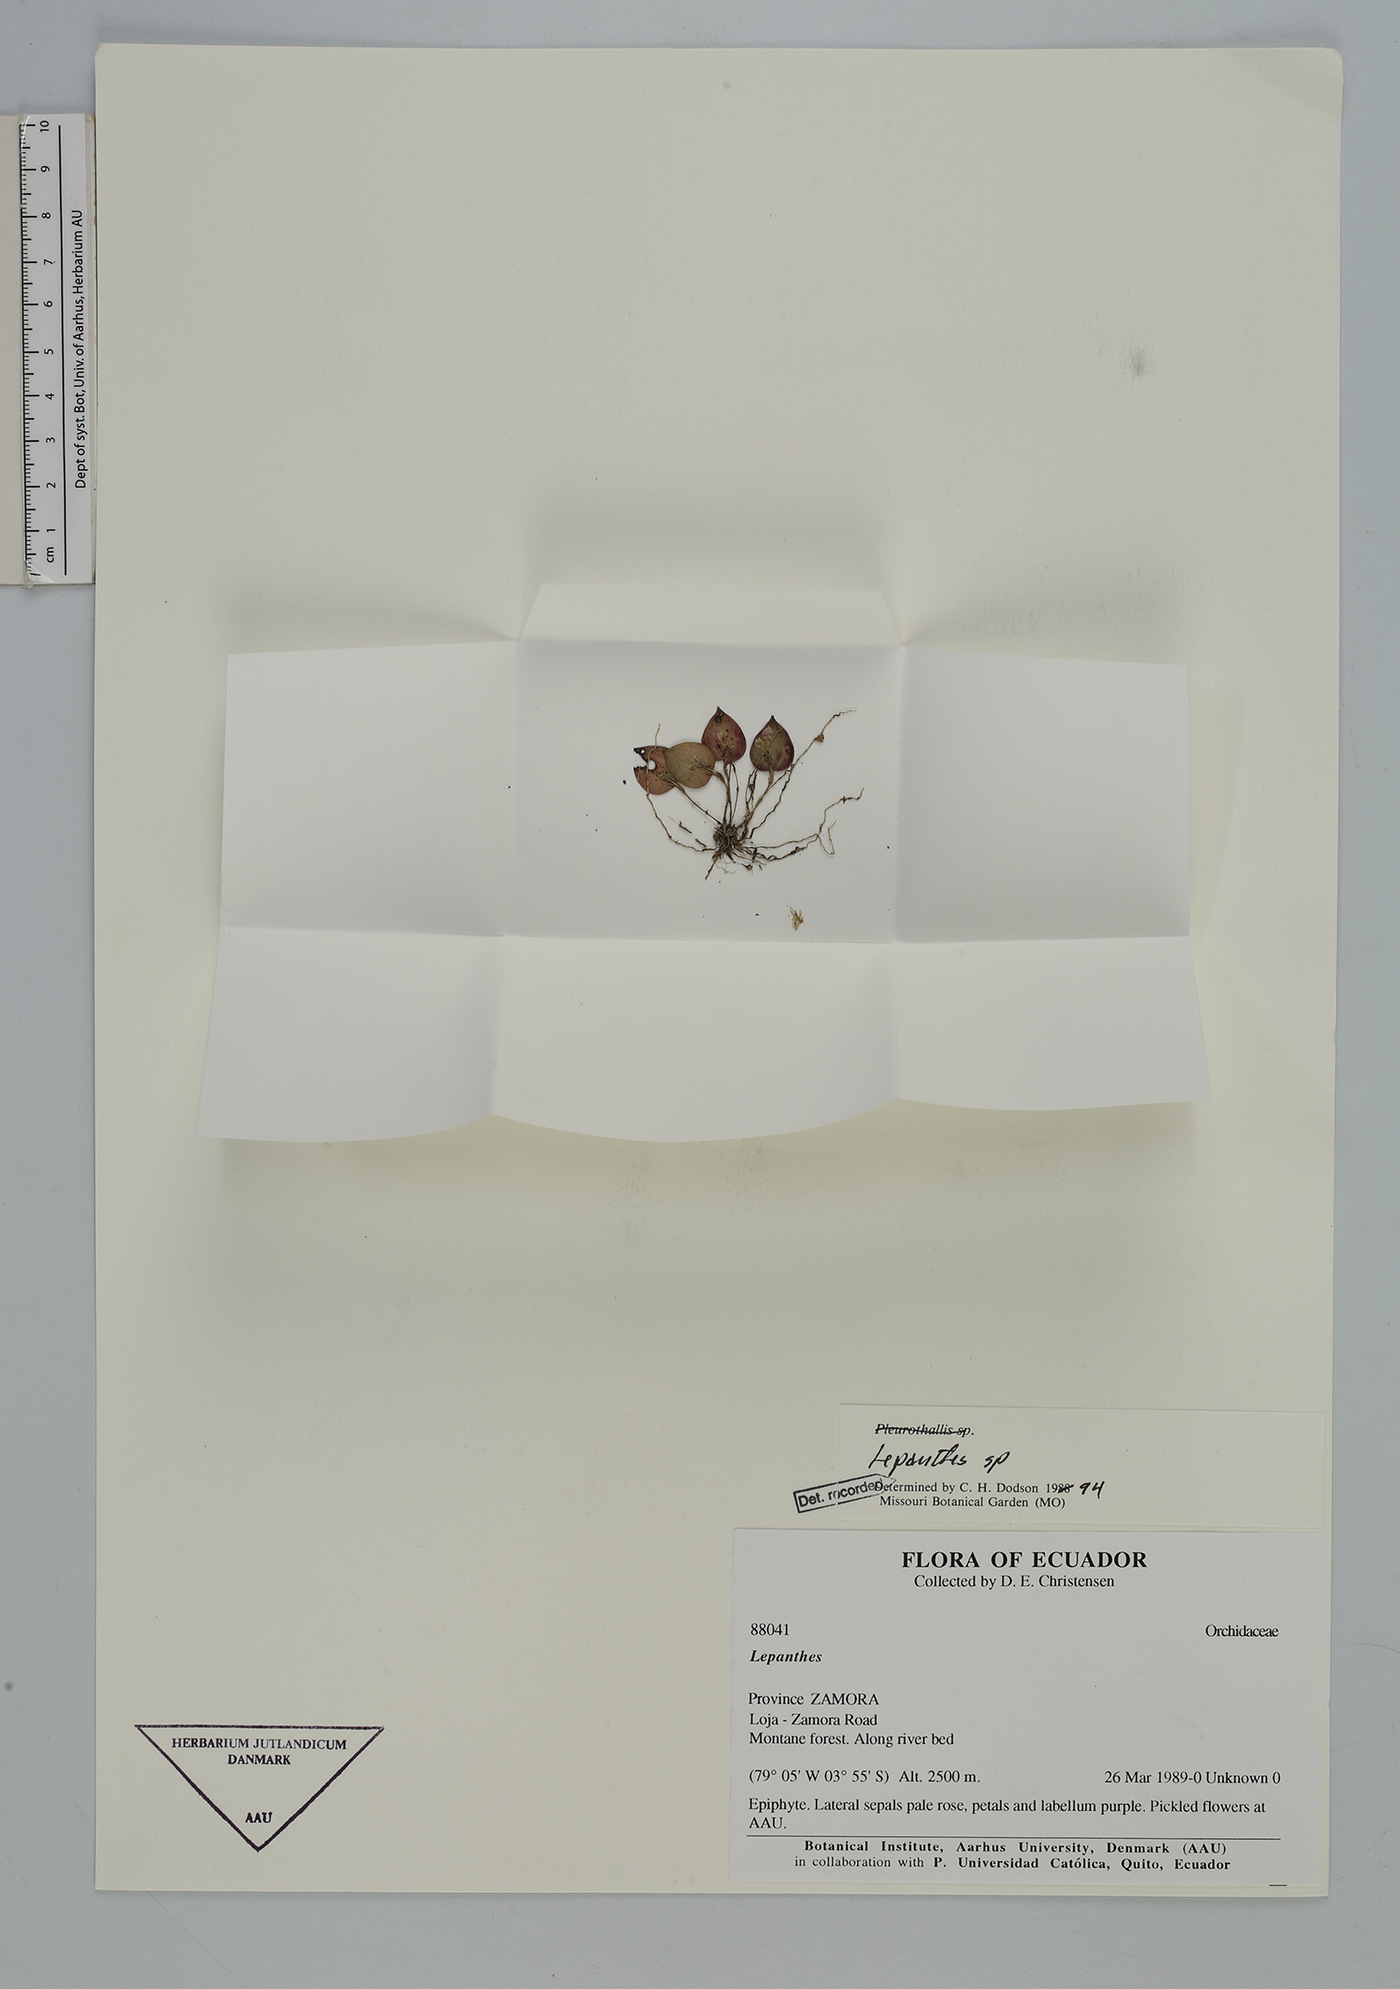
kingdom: Plantae
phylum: Tracheophyta
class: Liliopsida
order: Asparagales
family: Orchidaceae
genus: Lepanthes
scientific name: Lepanthes
